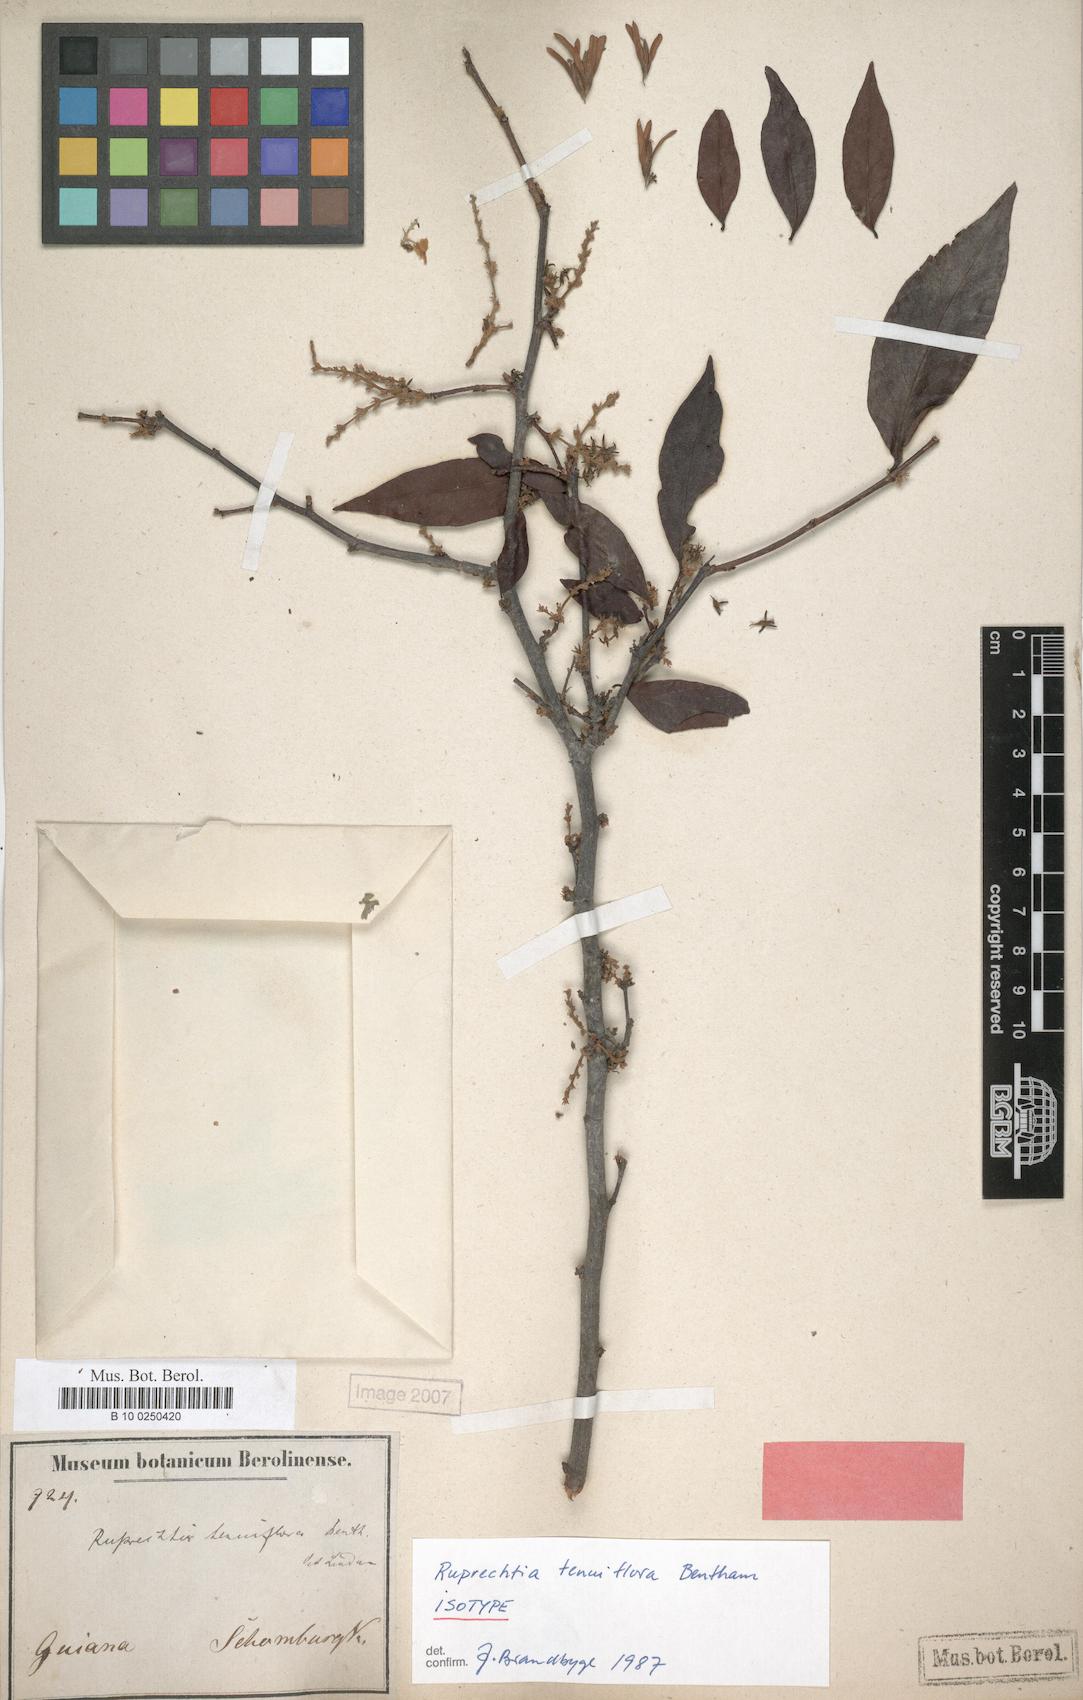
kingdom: Plantae
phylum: Tracheophyta
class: Magnoliopsida
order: Caryophyllales
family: Polygonaceae
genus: Ruprechtia
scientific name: Ruprechtia tenuiflora
